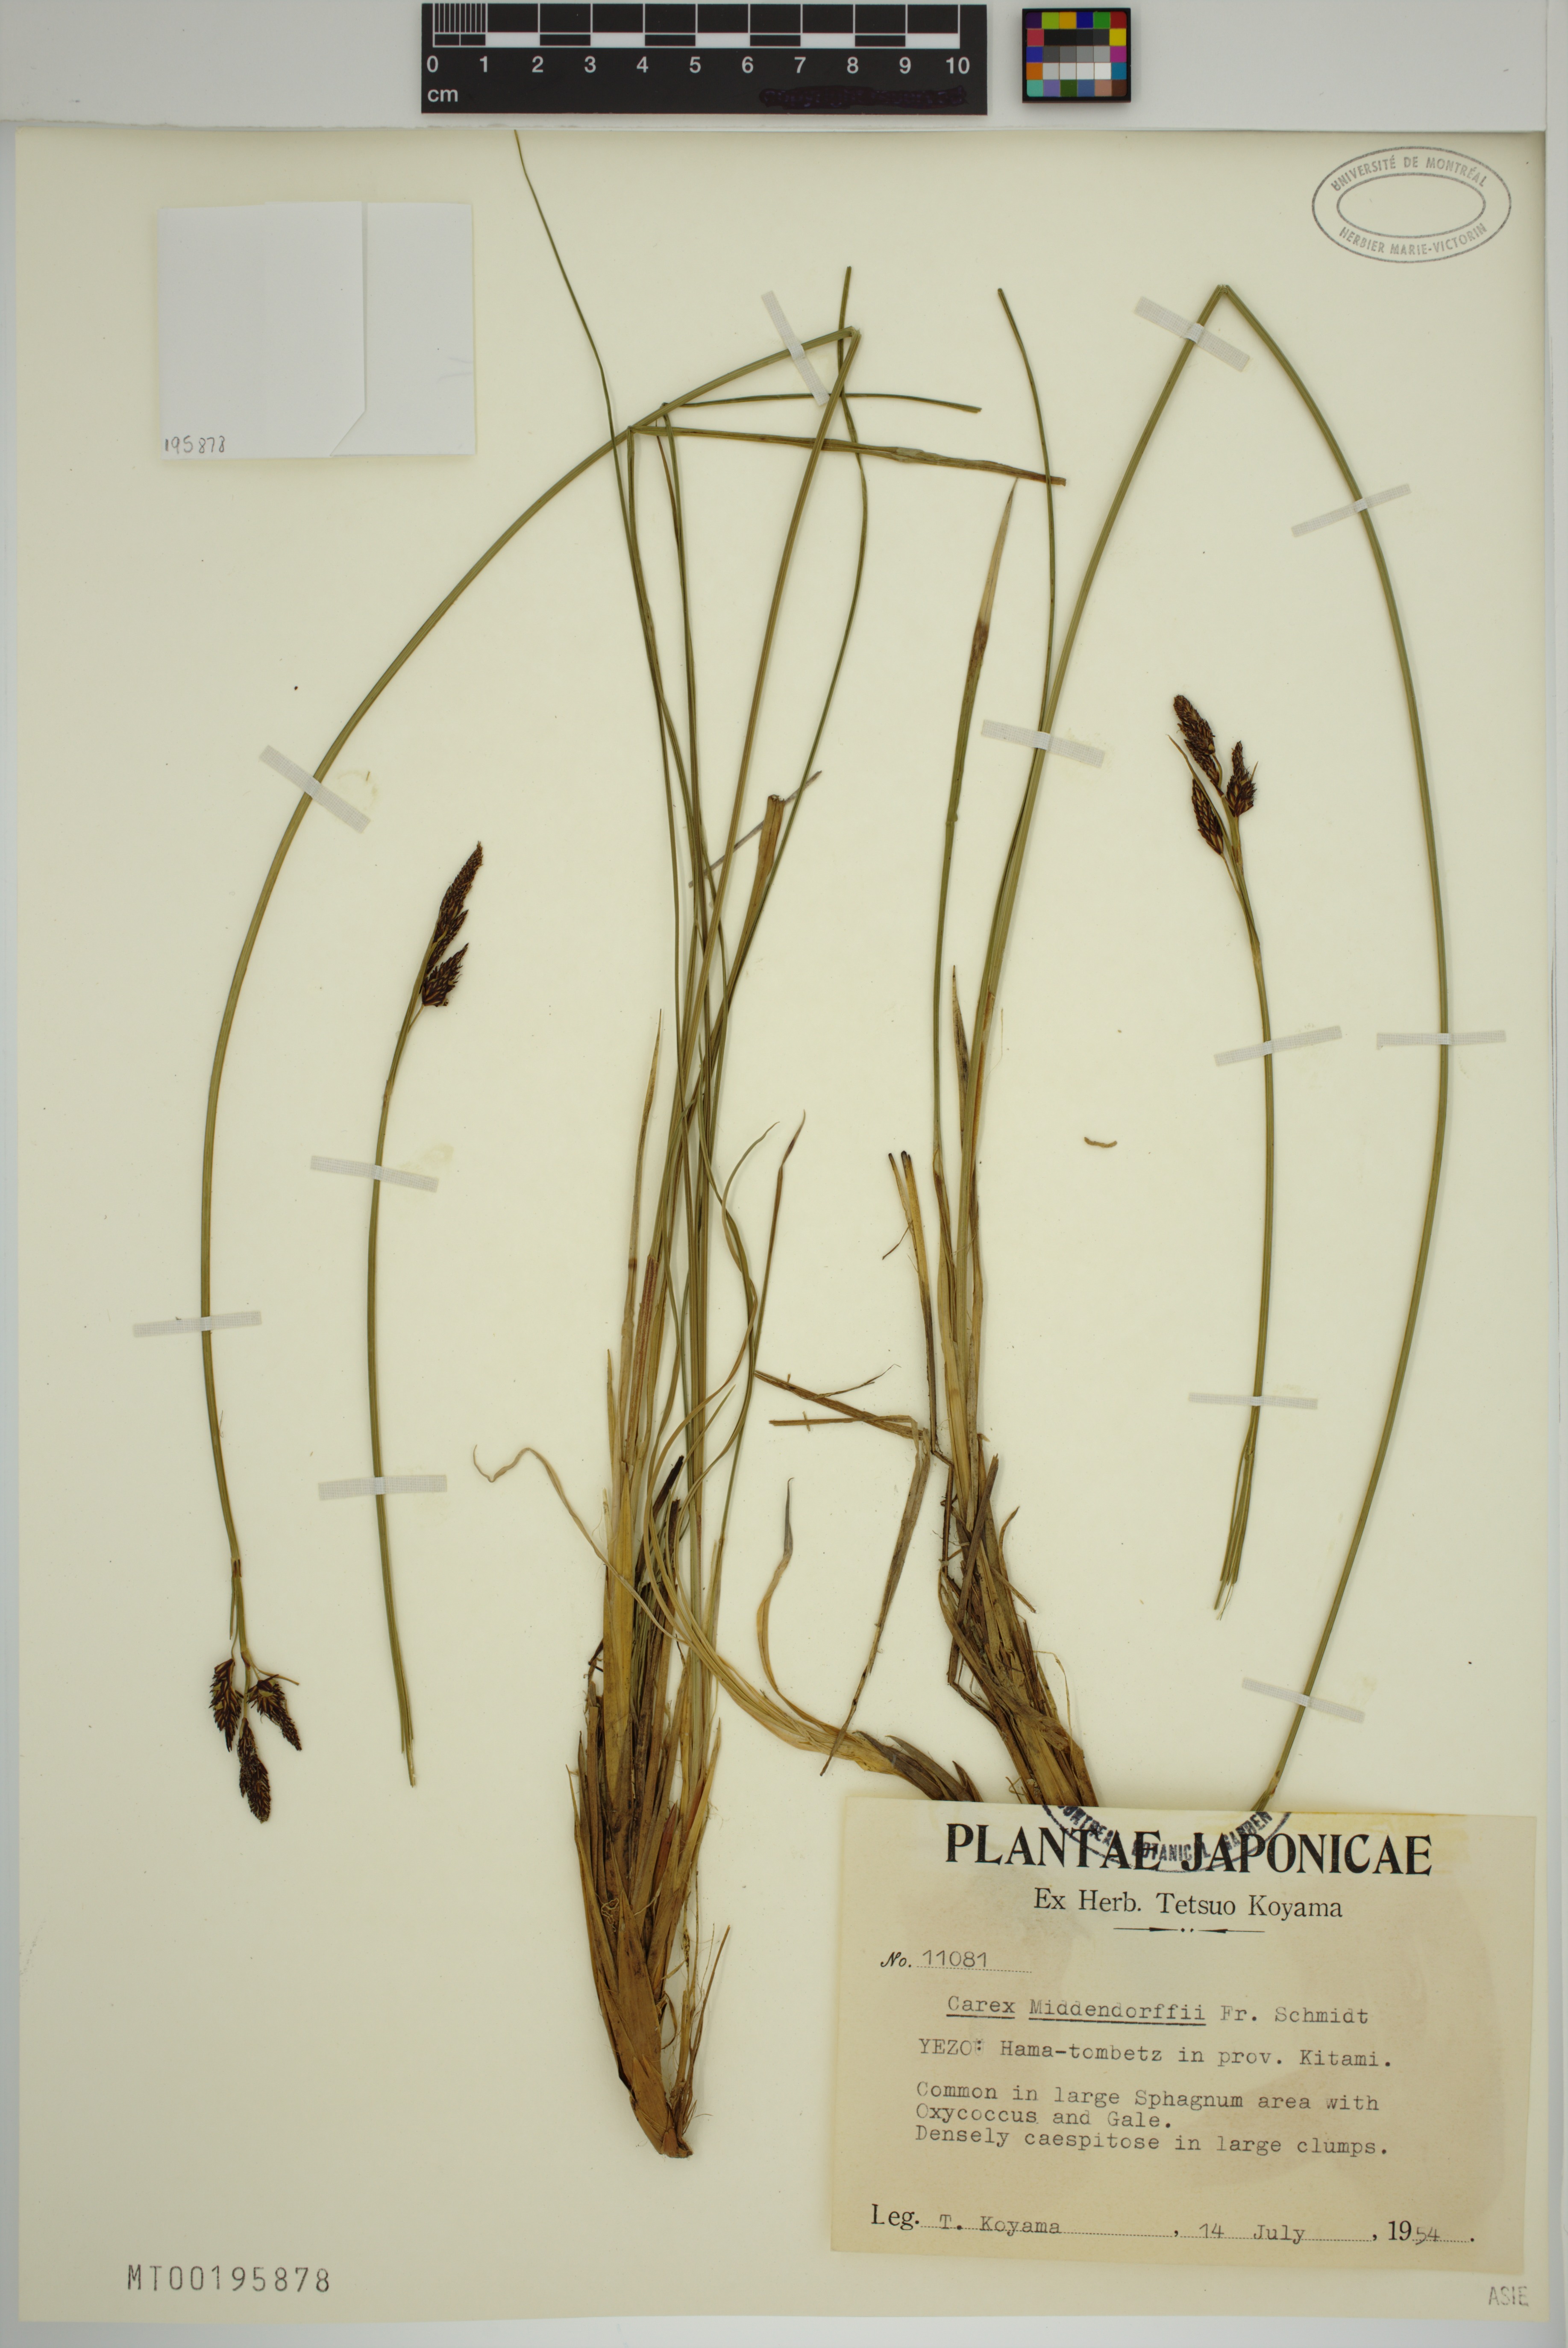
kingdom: Plantae
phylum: Tracheophyta
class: Liliopsida
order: Poales
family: Cyperaceae
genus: Carex
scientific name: Carex middendorffii
